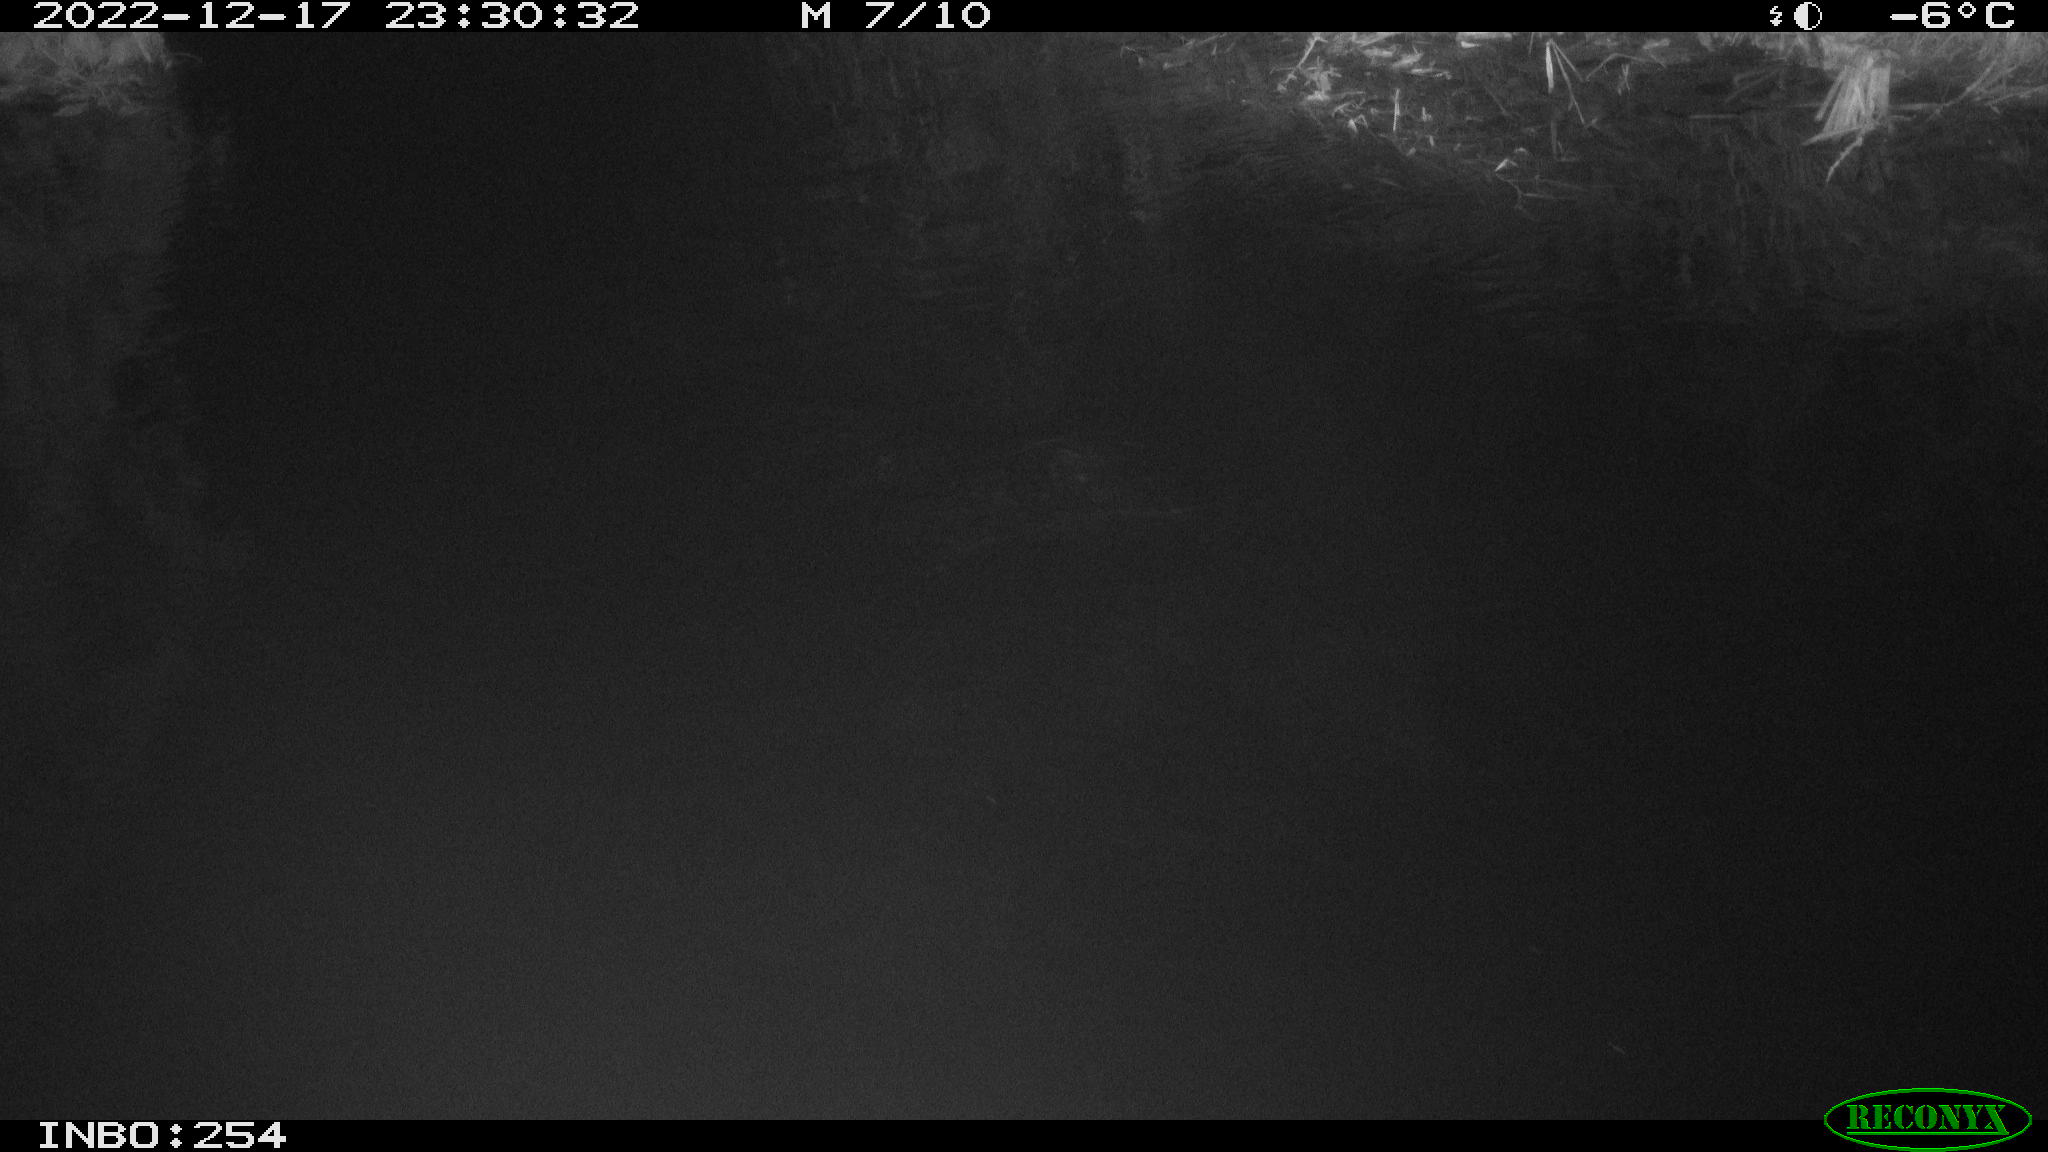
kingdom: Animalia
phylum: Chordata
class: Aves
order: Anseriformes
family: Anatidae
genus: Anas
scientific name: Anas
